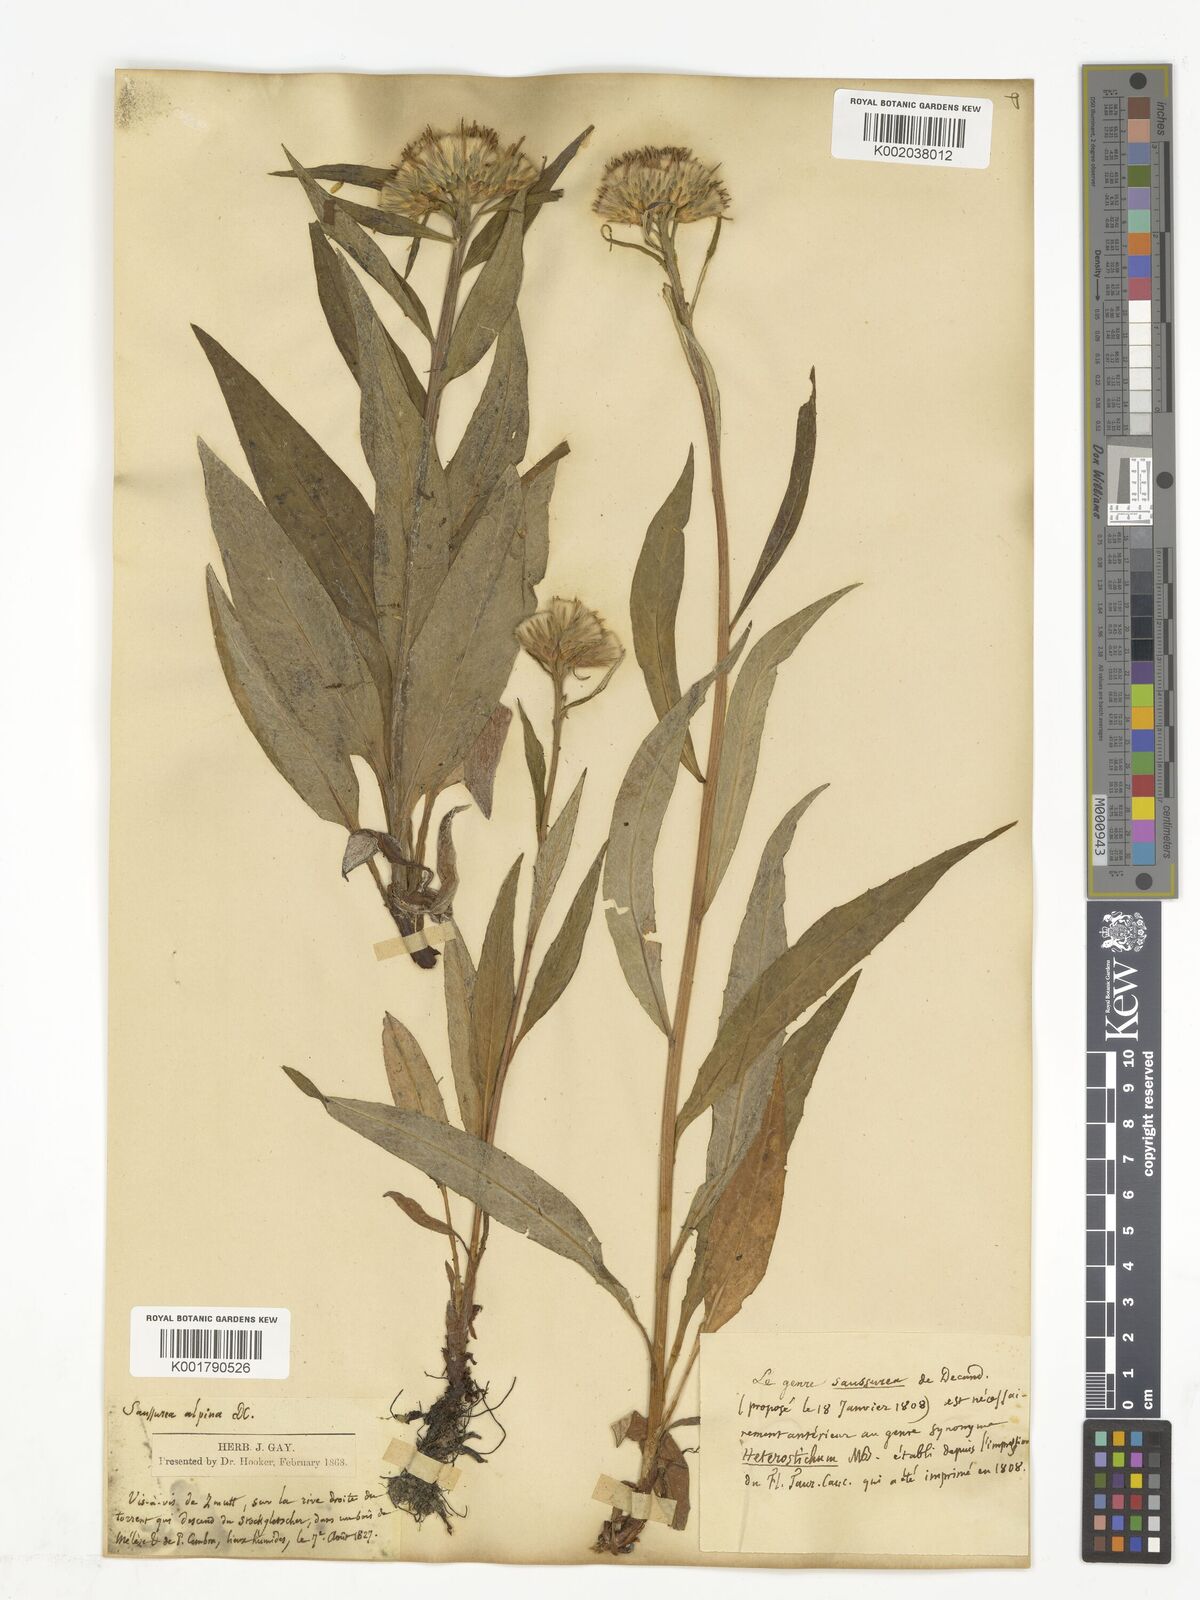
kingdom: Plantae
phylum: Tracheophyta
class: Magnoliopsida
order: Asterales
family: Asteraceae
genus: Saussurea
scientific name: Saussurea alpina
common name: Alpine saw-wort
